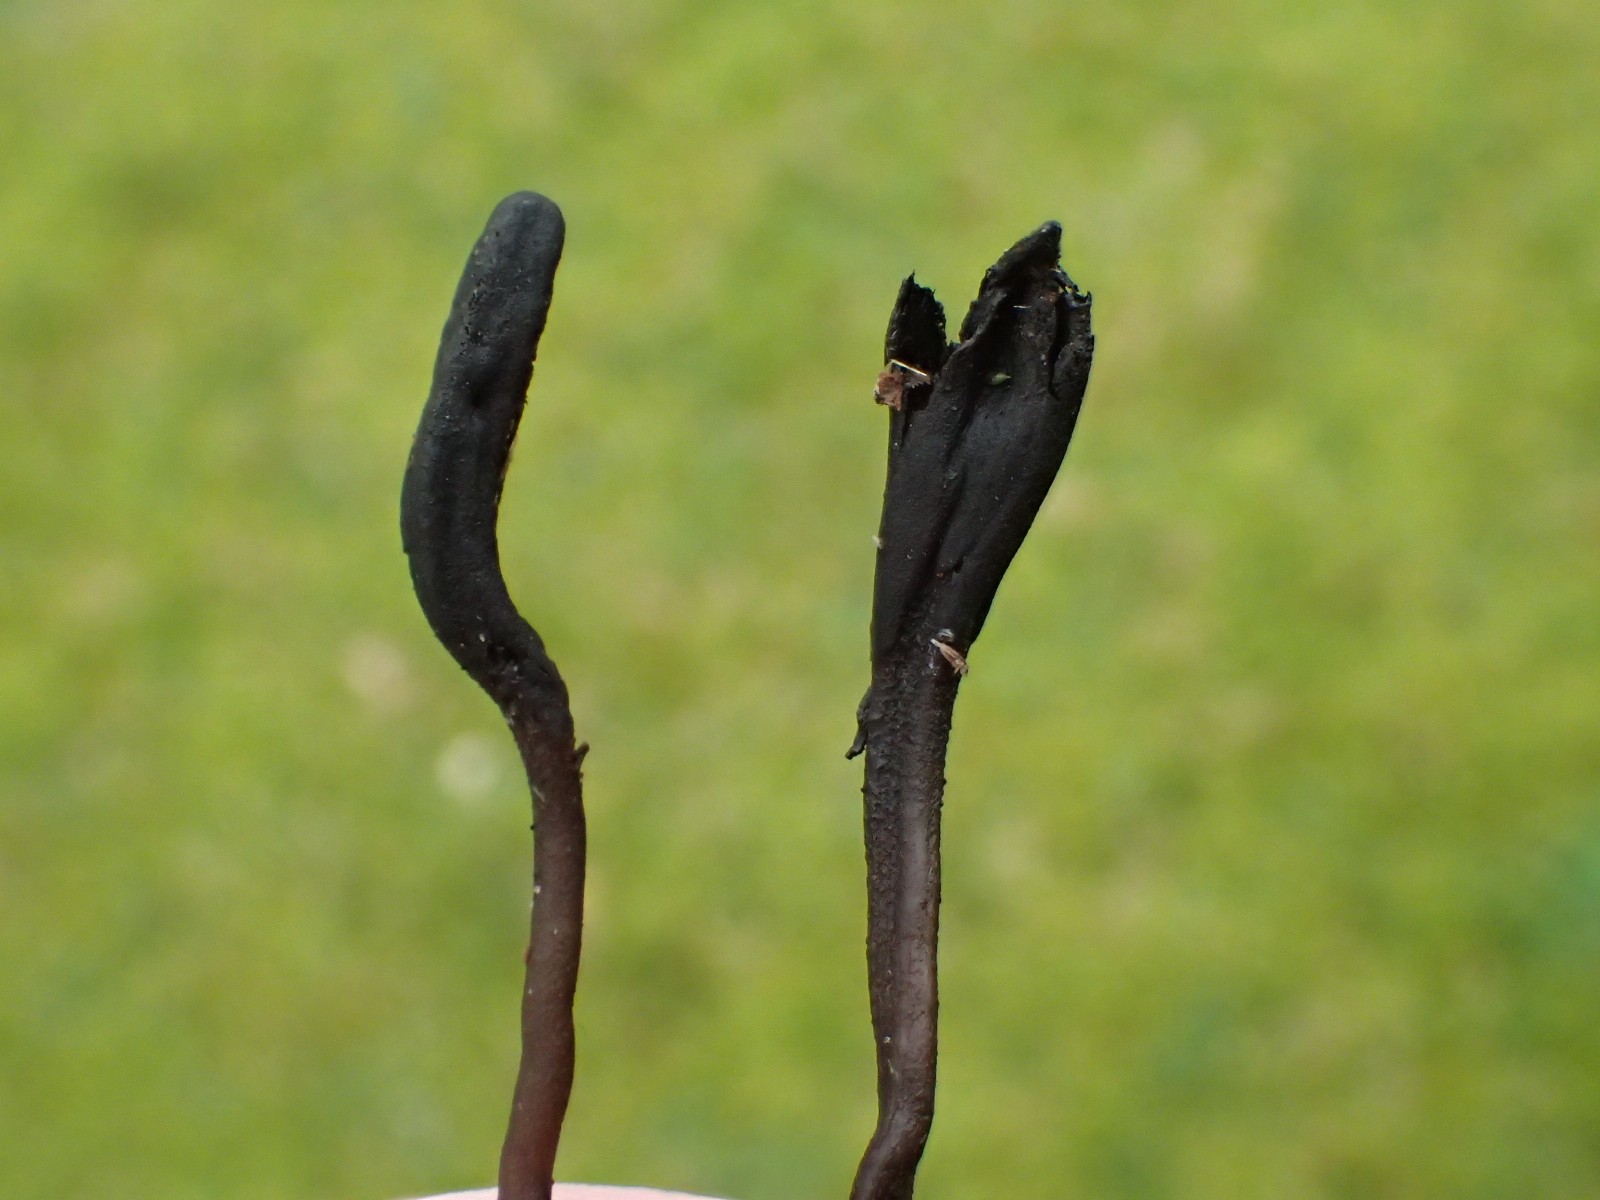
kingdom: Fungi
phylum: Ascomycota
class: Geoglossomycetes
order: Geoglossales
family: Geoglossaceae
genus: Geoglossum
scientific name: Geoglossum umbratile
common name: slank jordtunge
